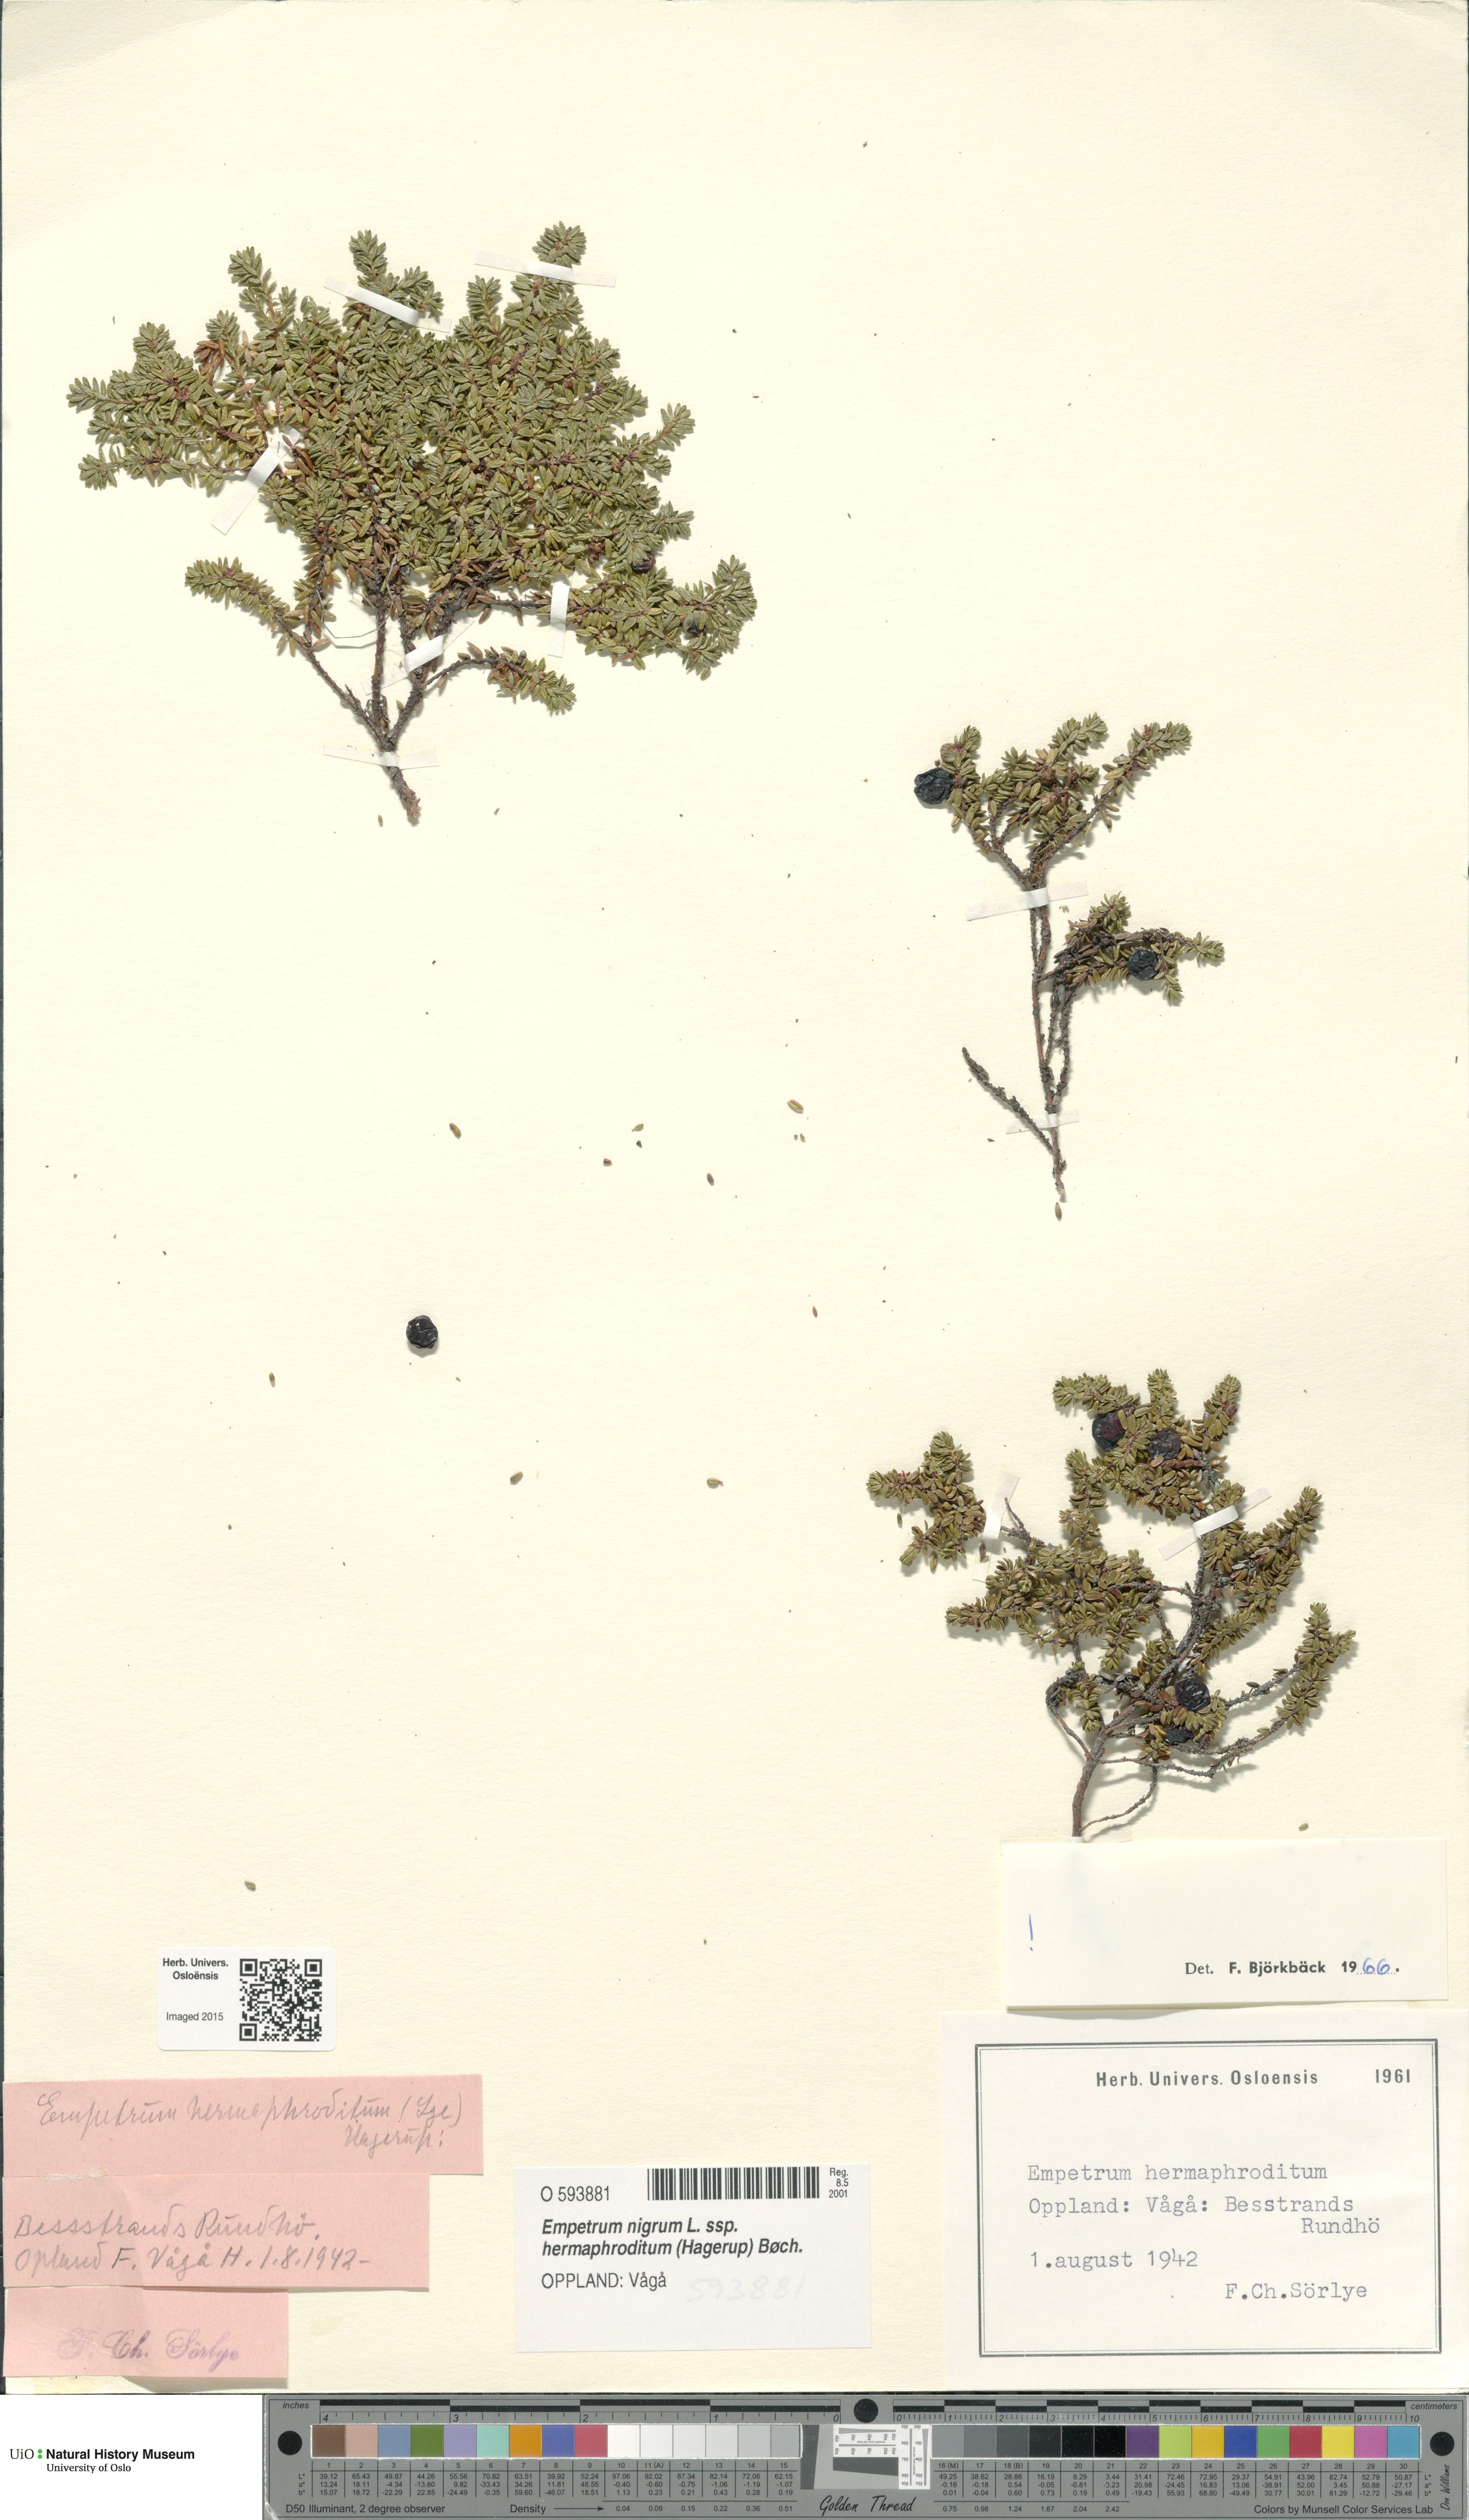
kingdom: Plantae
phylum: Tracheophyta
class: Magnoliopsida
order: Ericales
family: Ericaceae
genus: Empetrum
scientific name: Empetrum hermaphroditum
